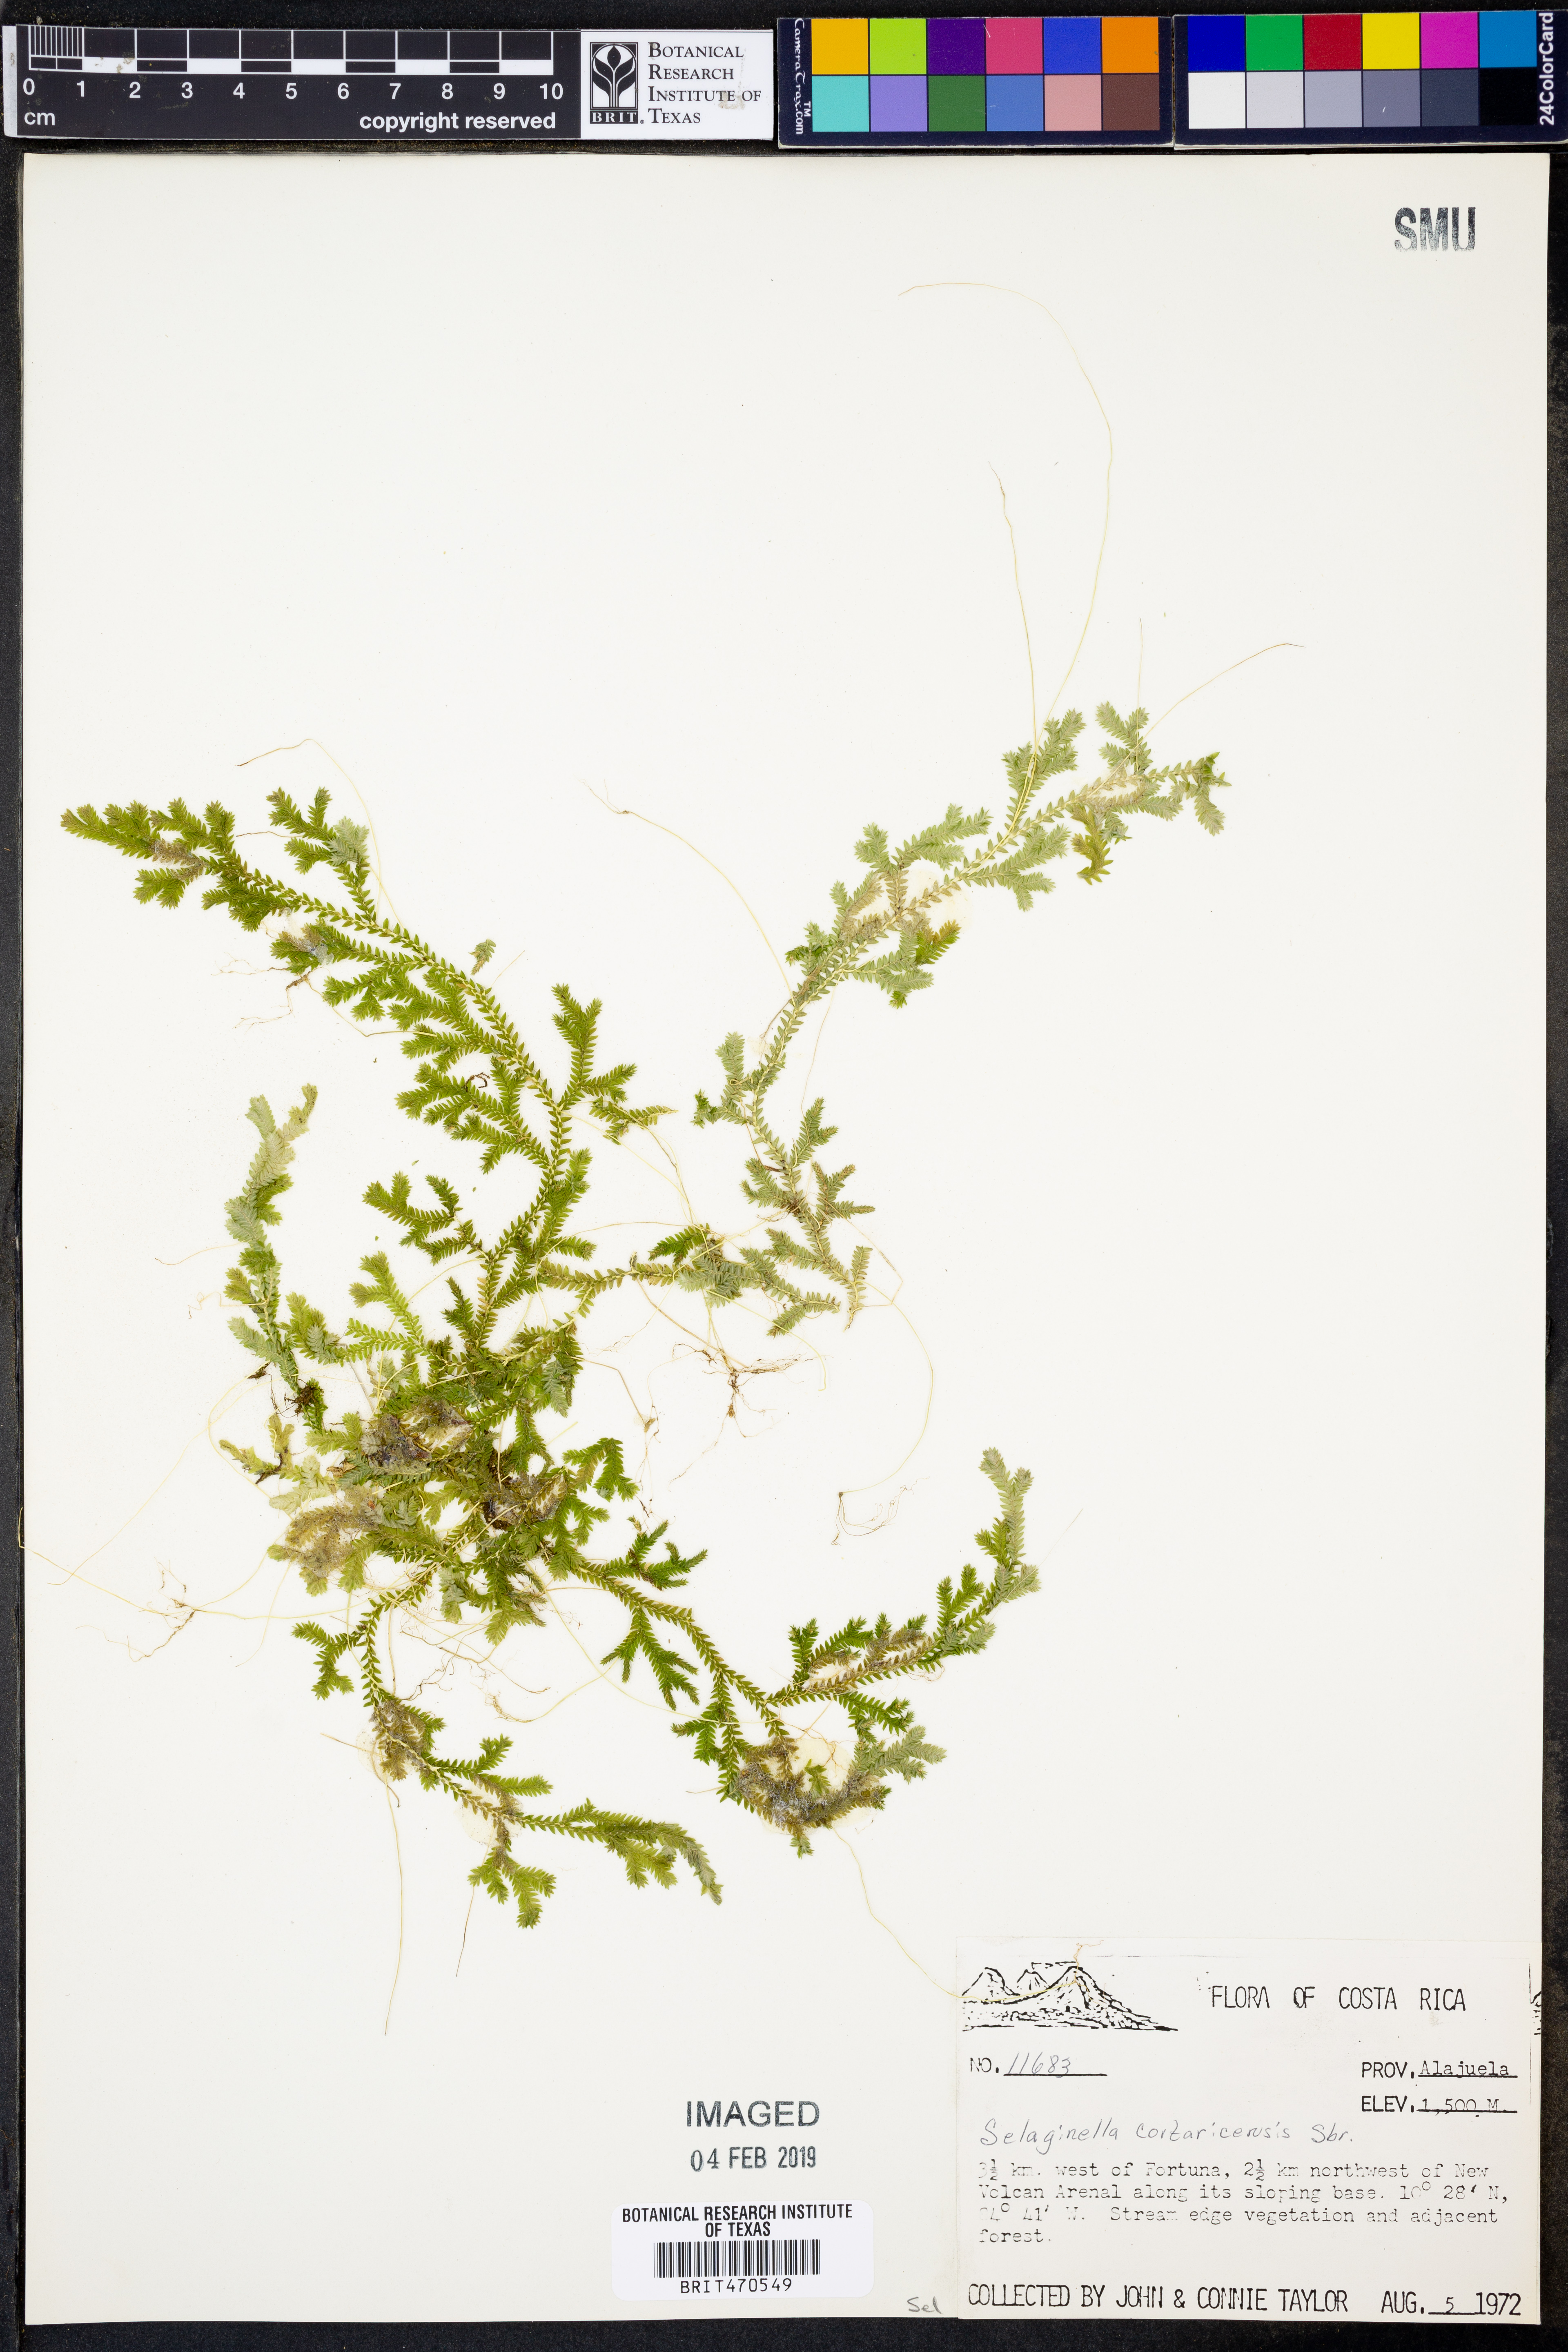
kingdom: Plantae
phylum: Tracheophyta
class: Lycopodiopsida
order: Selaginellales
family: Selaginellaceae
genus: Selaginella
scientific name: Selaginella
